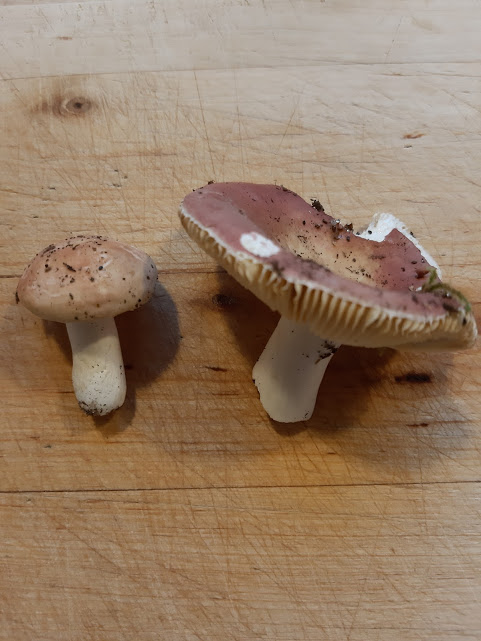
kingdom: Fungi
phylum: Basidiomycota
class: Agaricomycetes
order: Russulales
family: Russulaceae
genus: Russula
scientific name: Russula vesca
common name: spiselig skørhat
